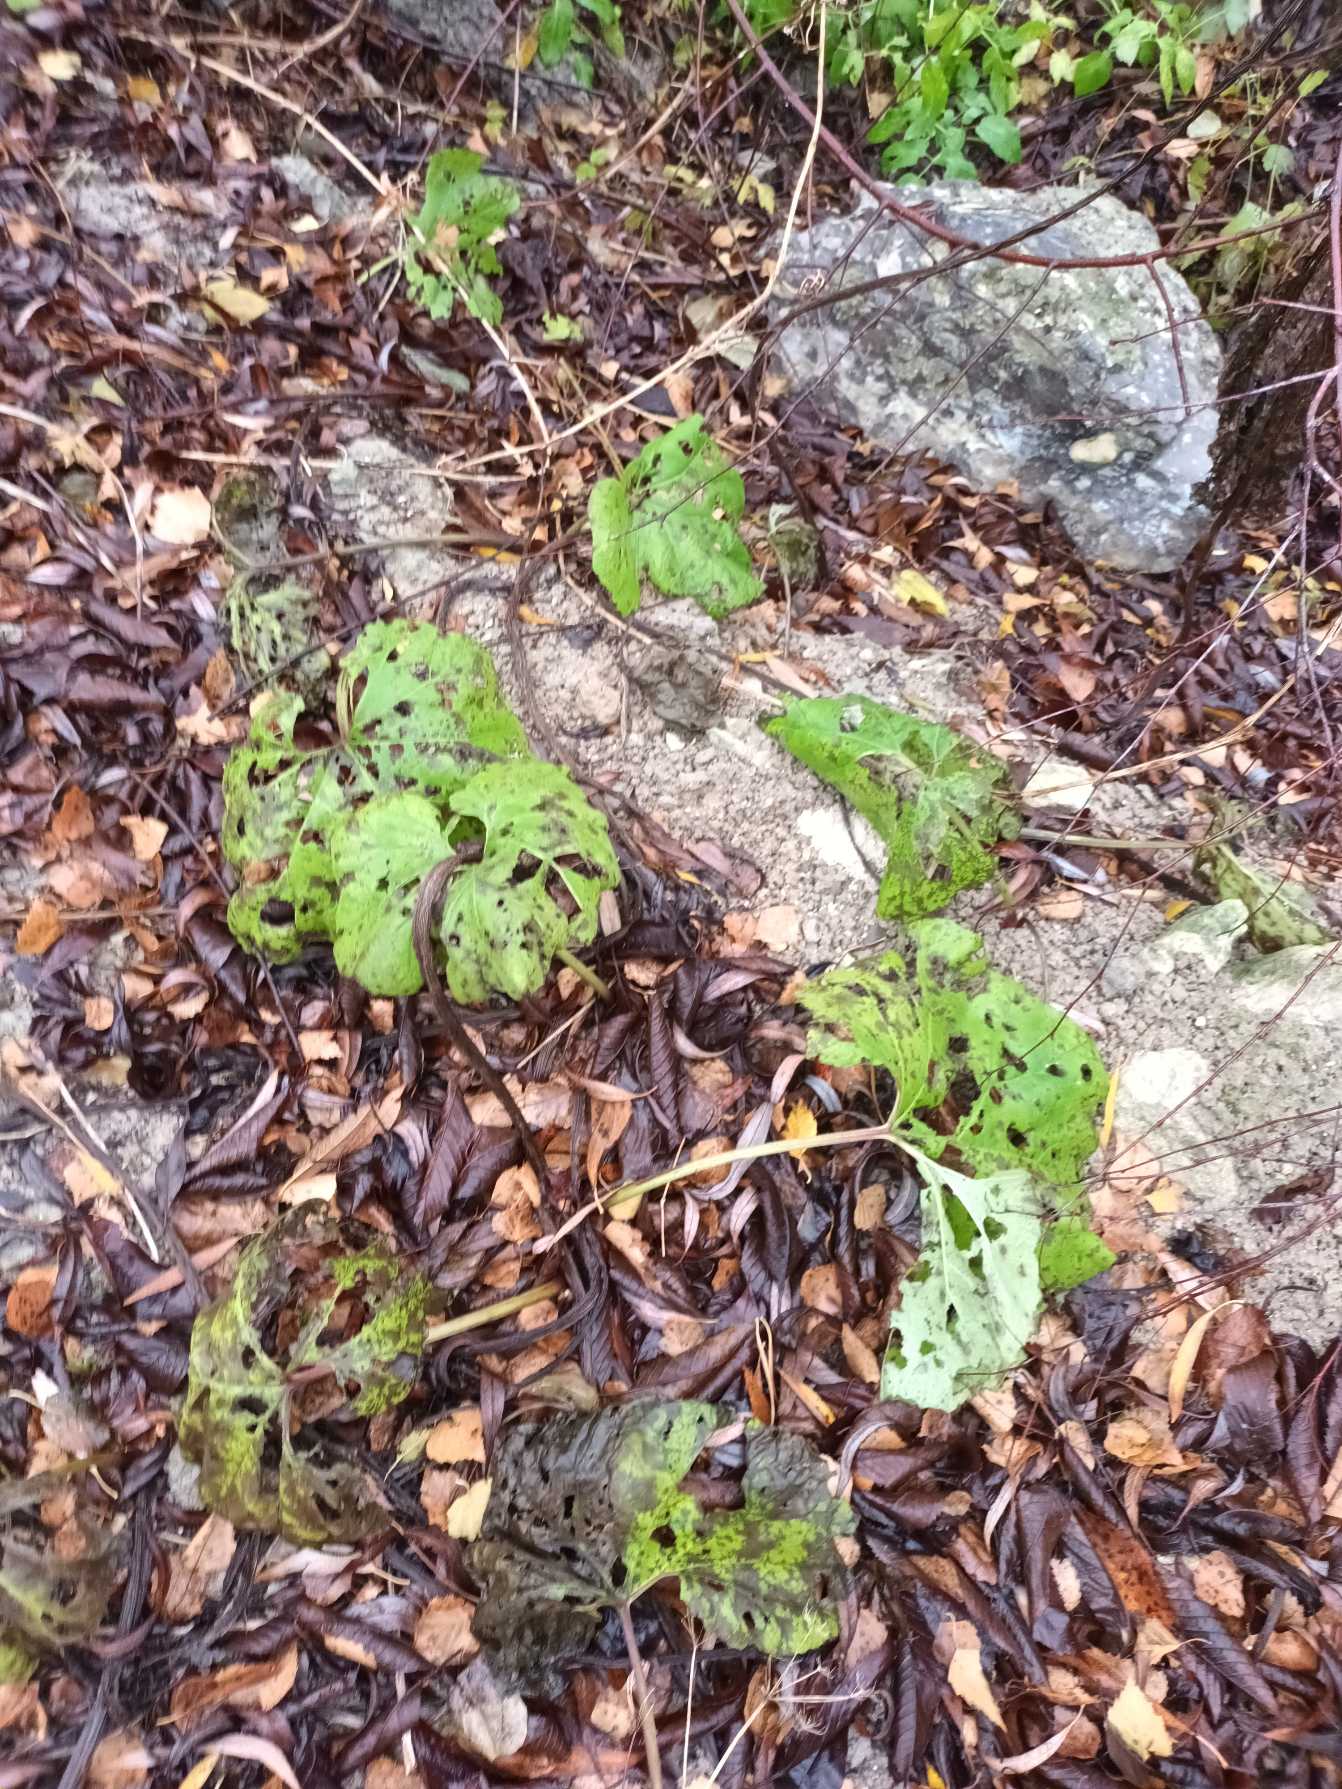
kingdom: Plantae
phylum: Tracheophyta
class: Magnoliopsida
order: Asterales
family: Asteraceae
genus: Petasites
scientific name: Petasites hybridus
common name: Rød hestehov
